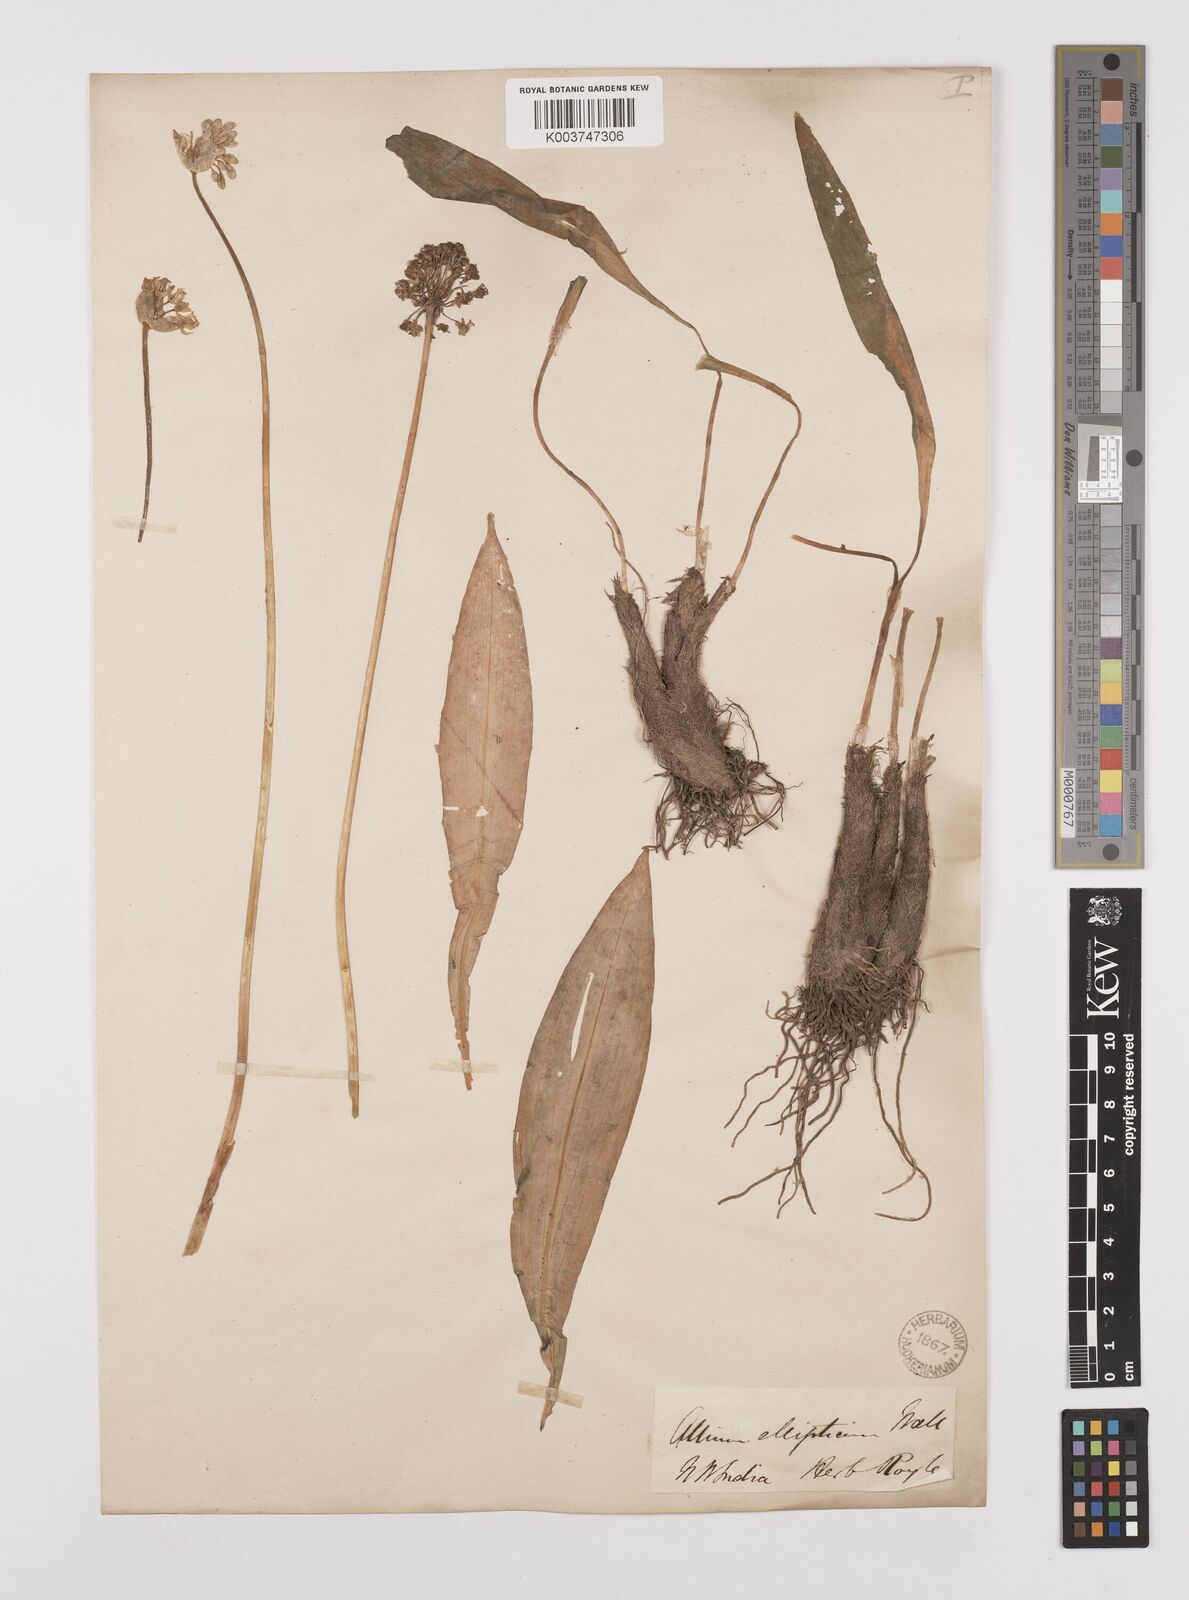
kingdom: Plantae
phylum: Tracheophyta
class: Liliopsida
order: Asparagales
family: Amaryllidaceae
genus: Allium
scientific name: Allium victorialis
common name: Alpine leek
